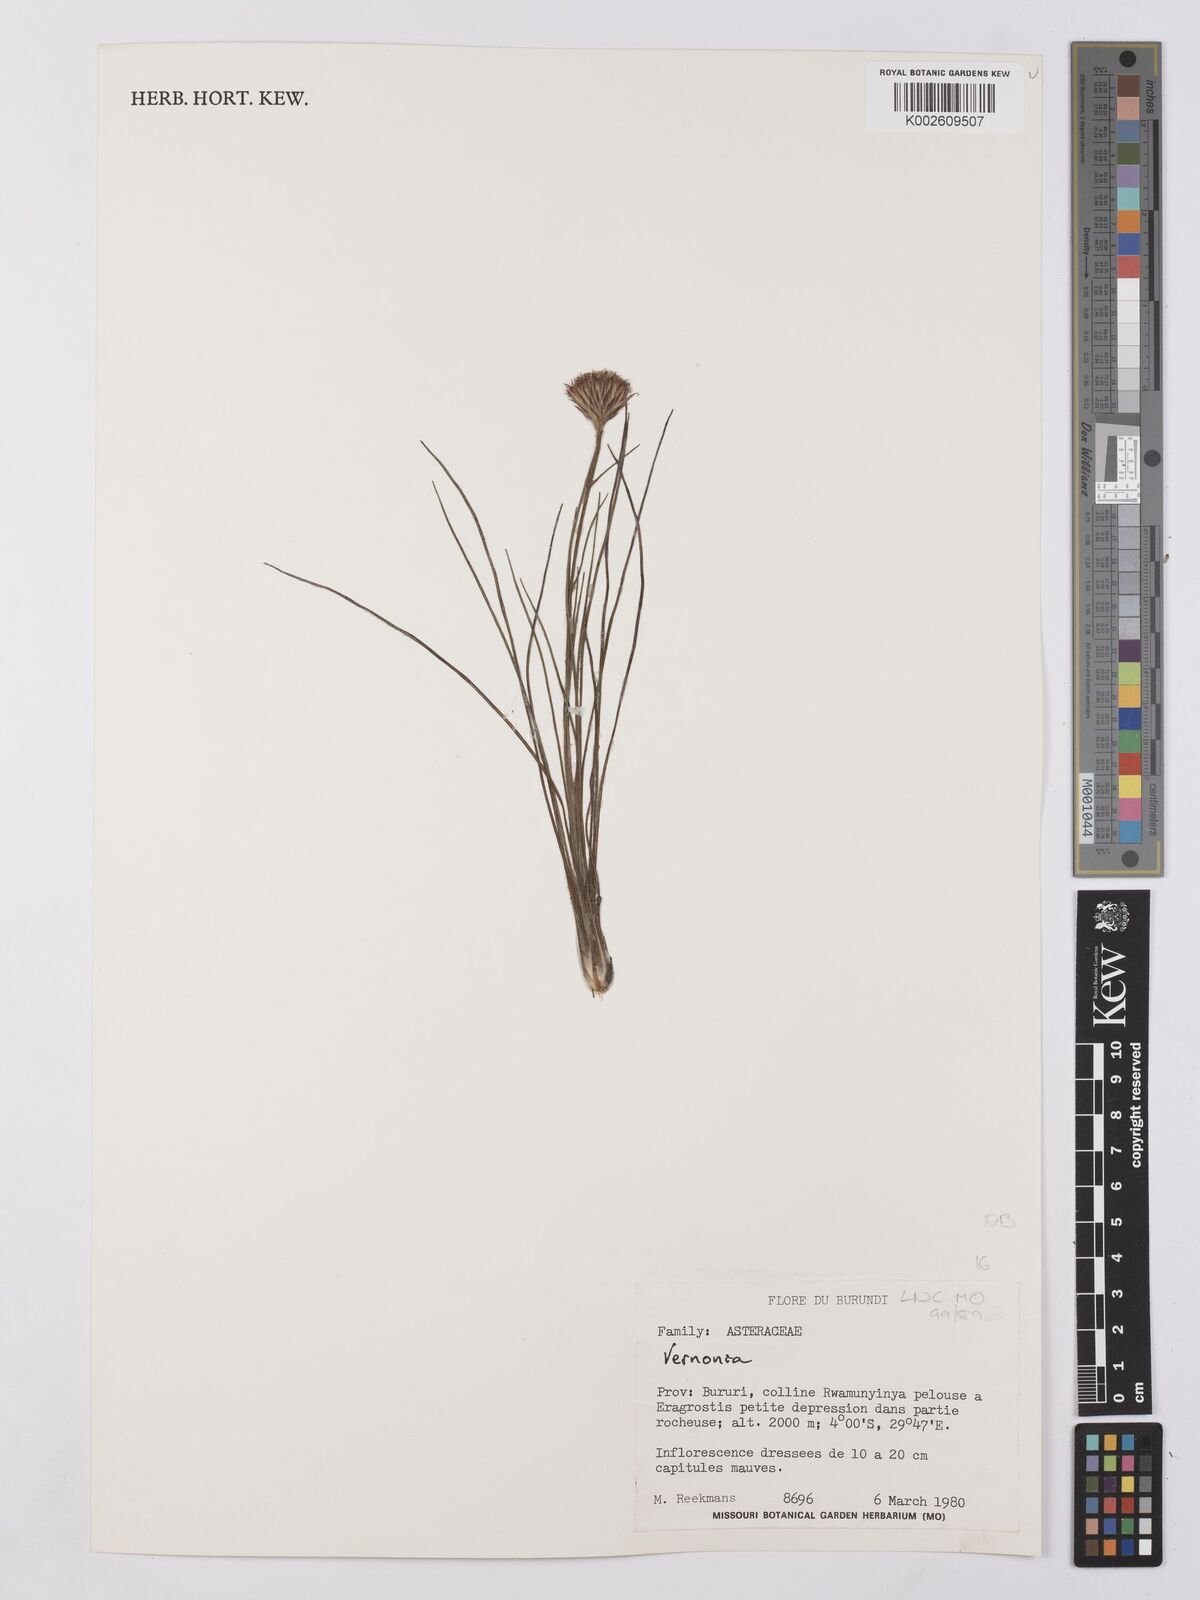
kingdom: Plantae
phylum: Tracheophyta
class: Magnoliopsida
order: Asterales
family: Asteraceae
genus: Vernonia
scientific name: Vernonia
